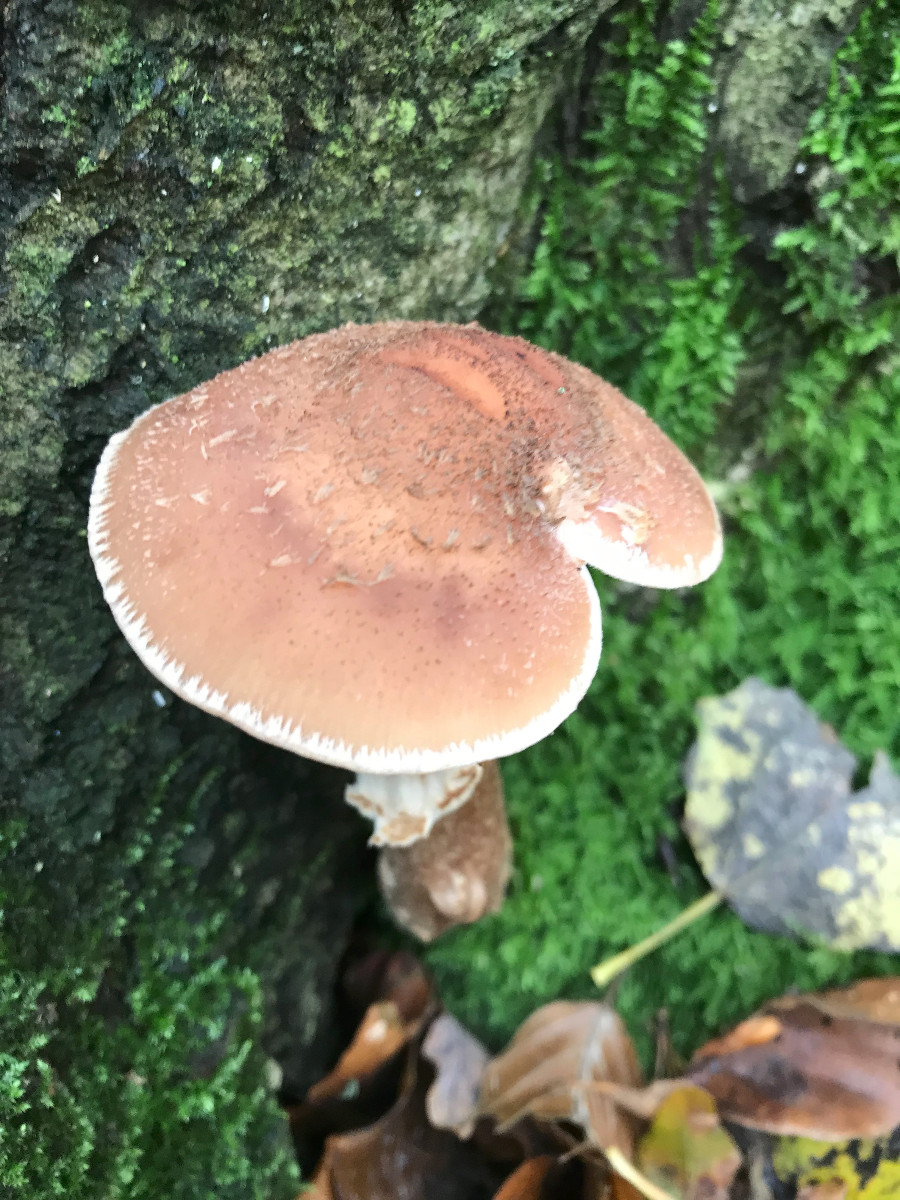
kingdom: Fungi
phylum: Basidiomycota
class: Agaricomycetes
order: Agaricales
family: Physalacriaceae
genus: Armillaria
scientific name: Armillaria
